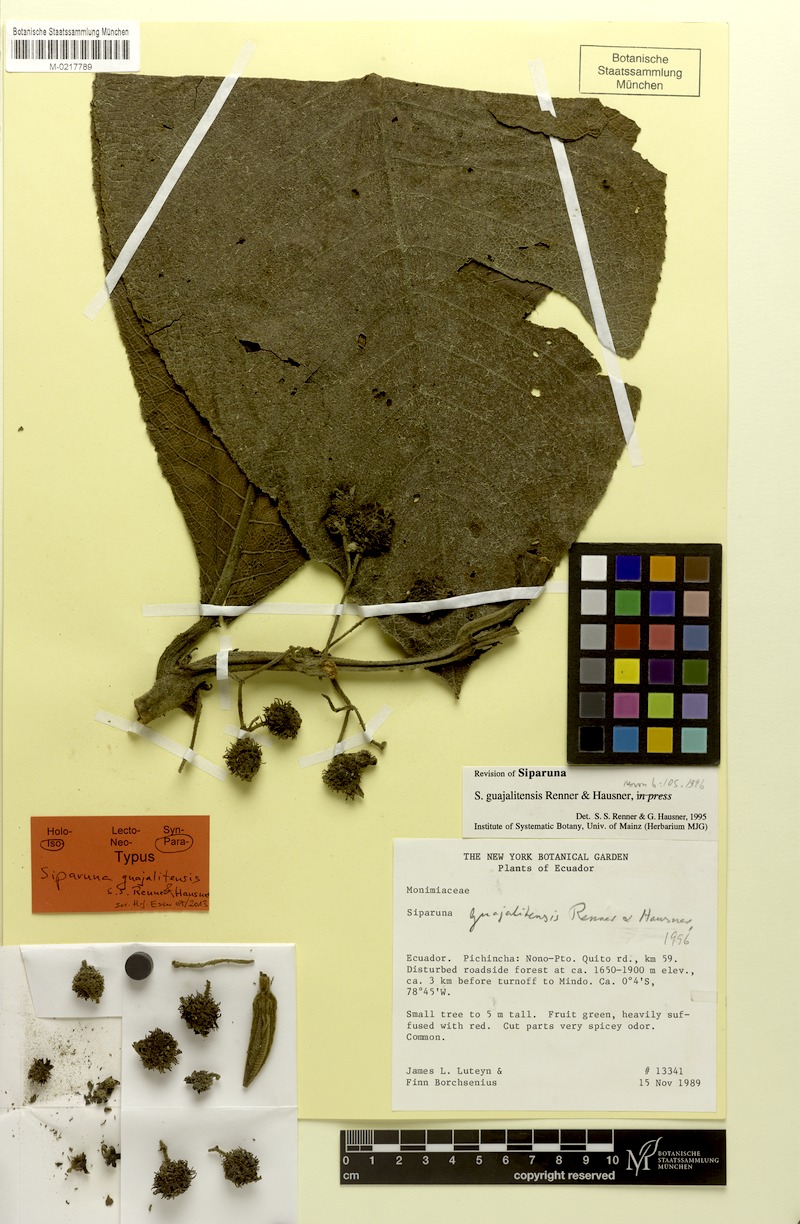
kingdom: Plantae
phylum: Tracheophyta
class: Magnoliopsida
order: Laurales
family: Siparunaceae
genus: Siparuna
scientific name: Siparuna guajalitensis
